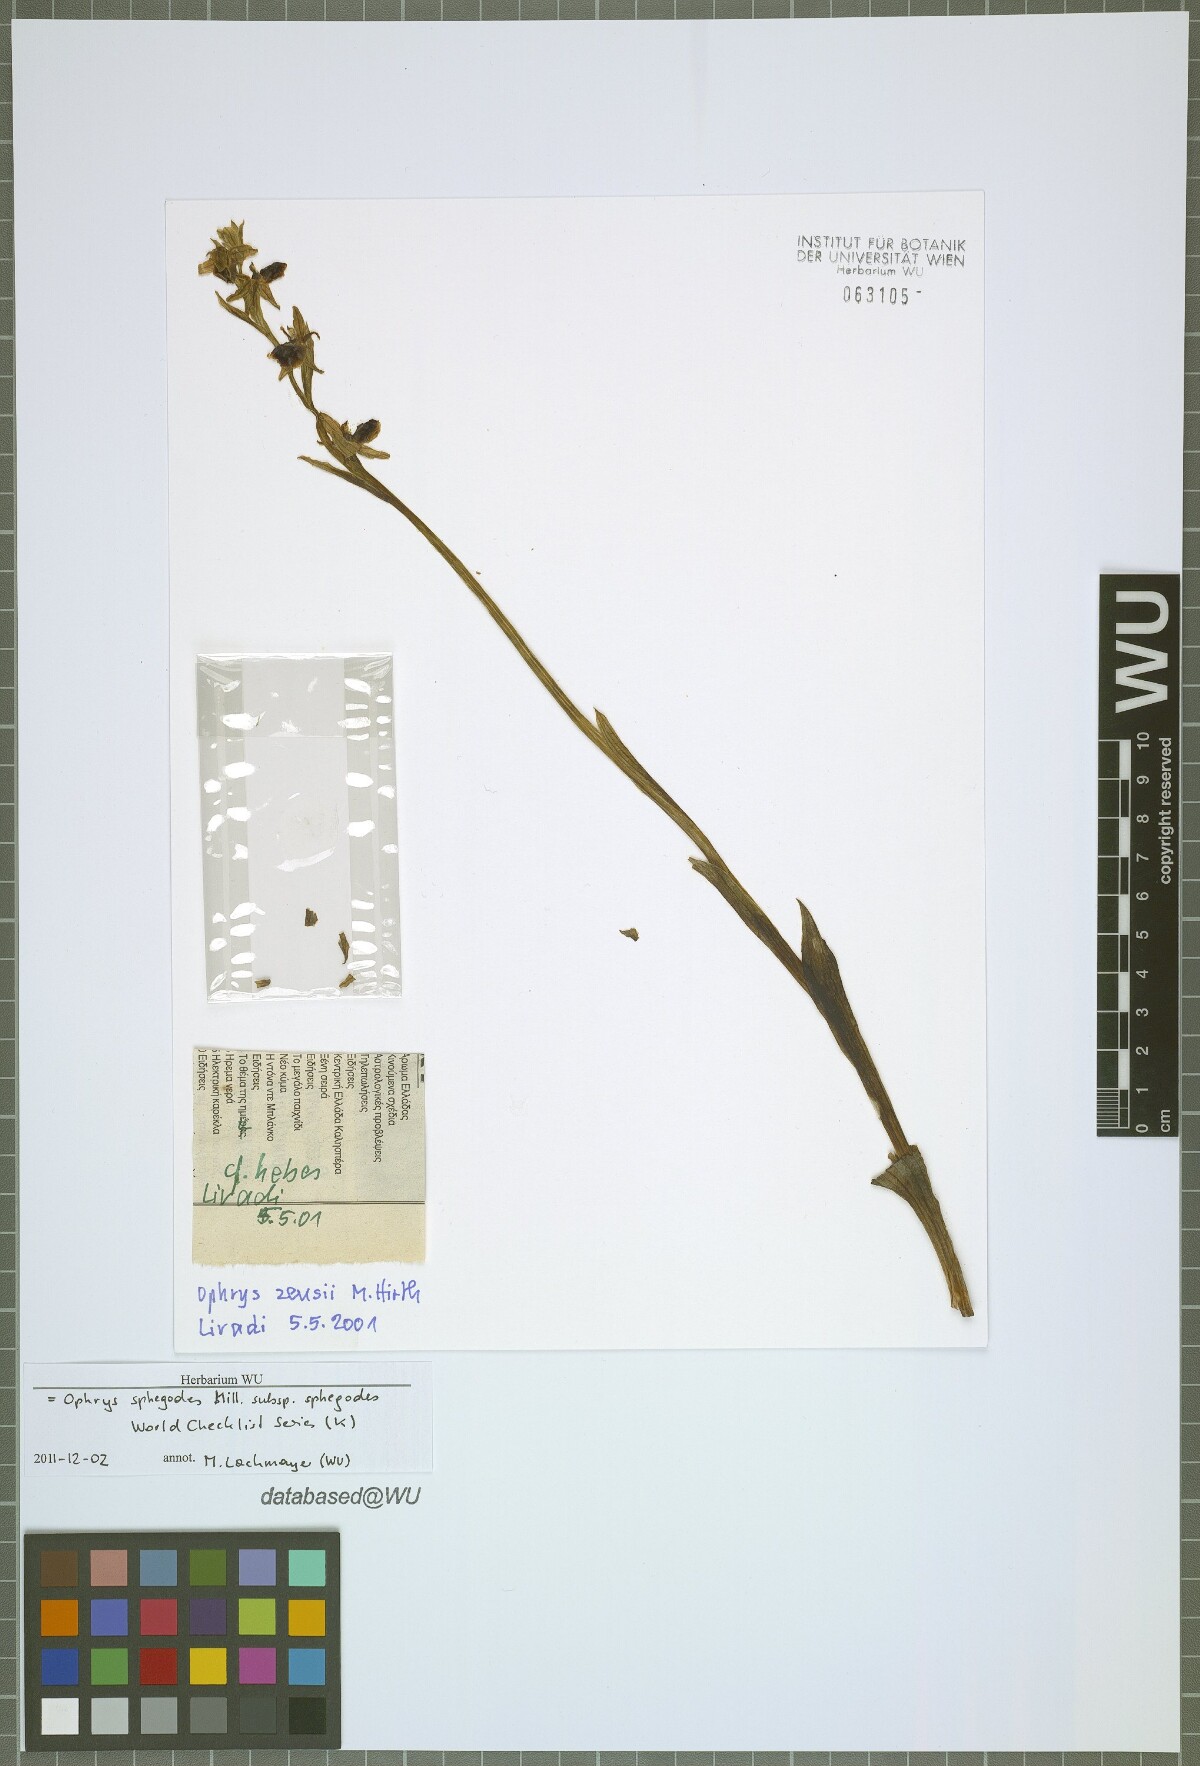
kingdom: Plantae
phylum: Tracheophyta
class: Liliopsida
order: Asparagales
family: Orchidaceae
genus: Ophrys
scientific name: Ophrys sphegodes
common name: Early spider-orchid
